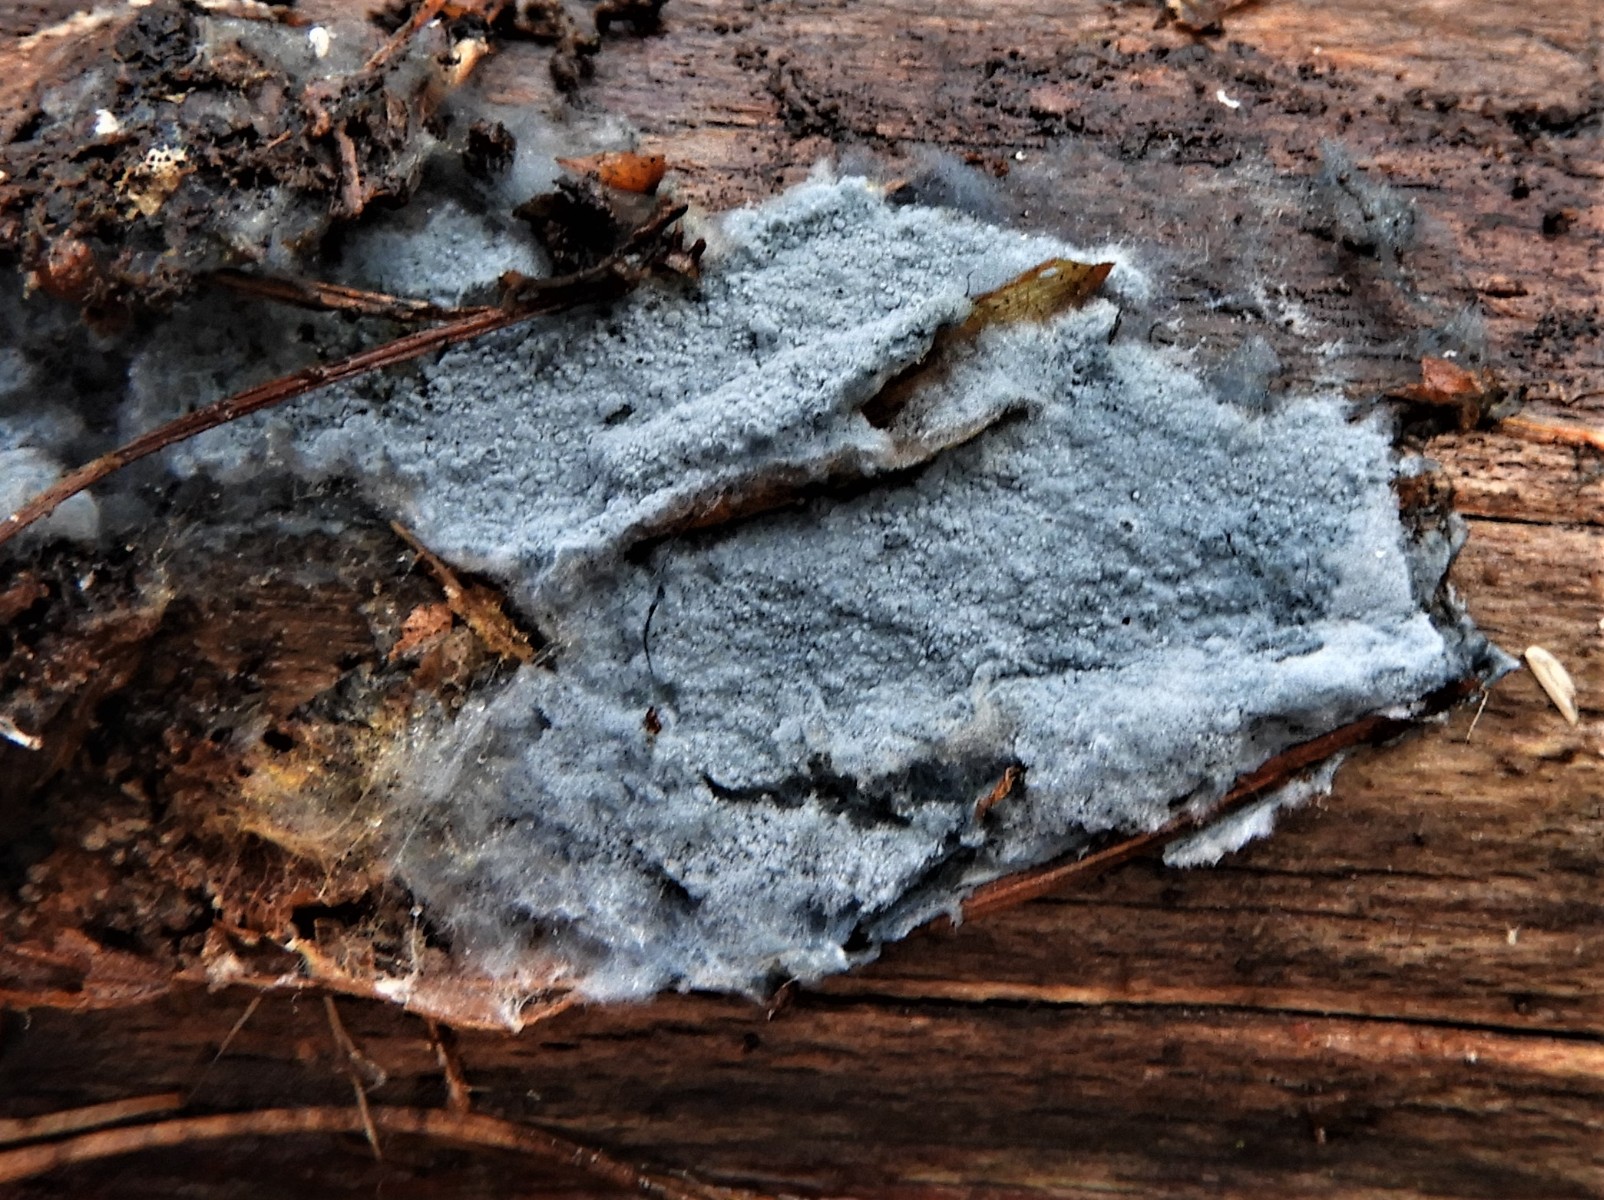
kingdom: Fungi
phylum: Basidiomycota
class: Agaricomycetes
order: Atheliales
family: Atheliaceae
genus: Byssocorticium
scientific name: Byssocorticium
